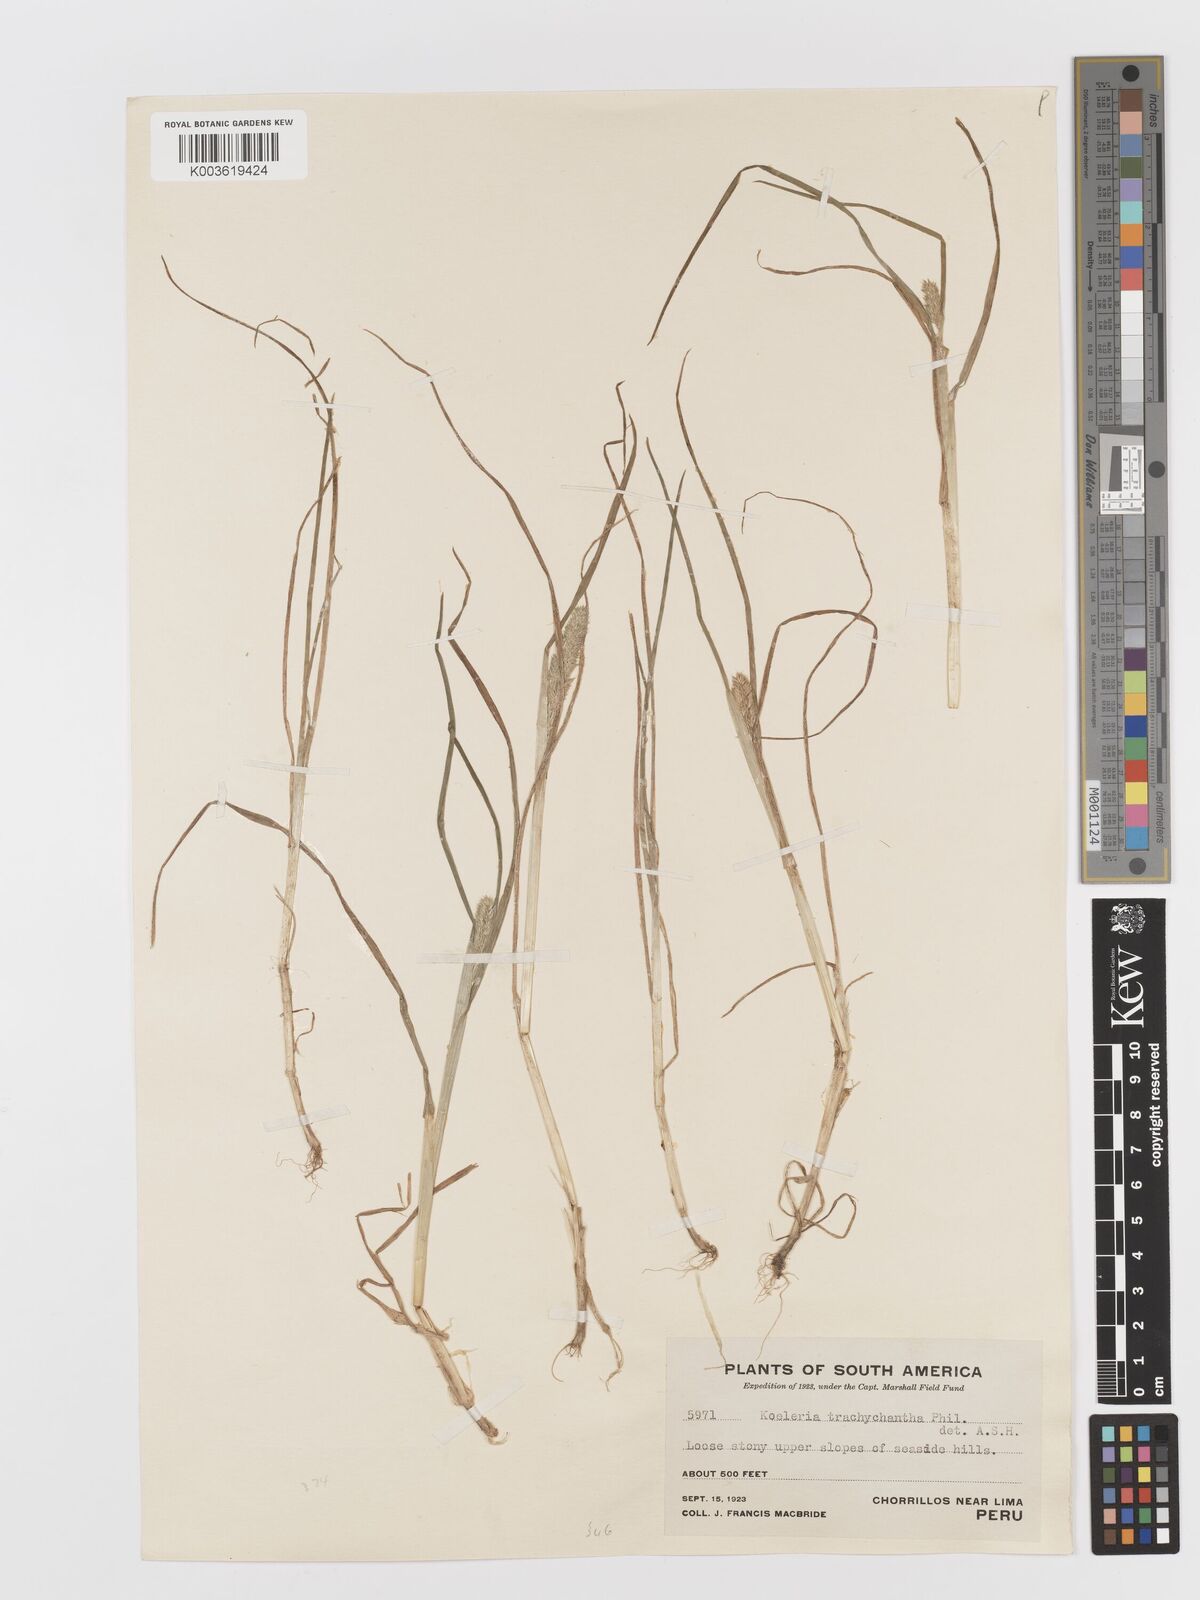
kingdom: Plantae
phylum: Tracheophyta
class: Liliopsida
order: Poales
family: Poaceae
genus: Rostraria
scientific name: Rostraria trachyantha
